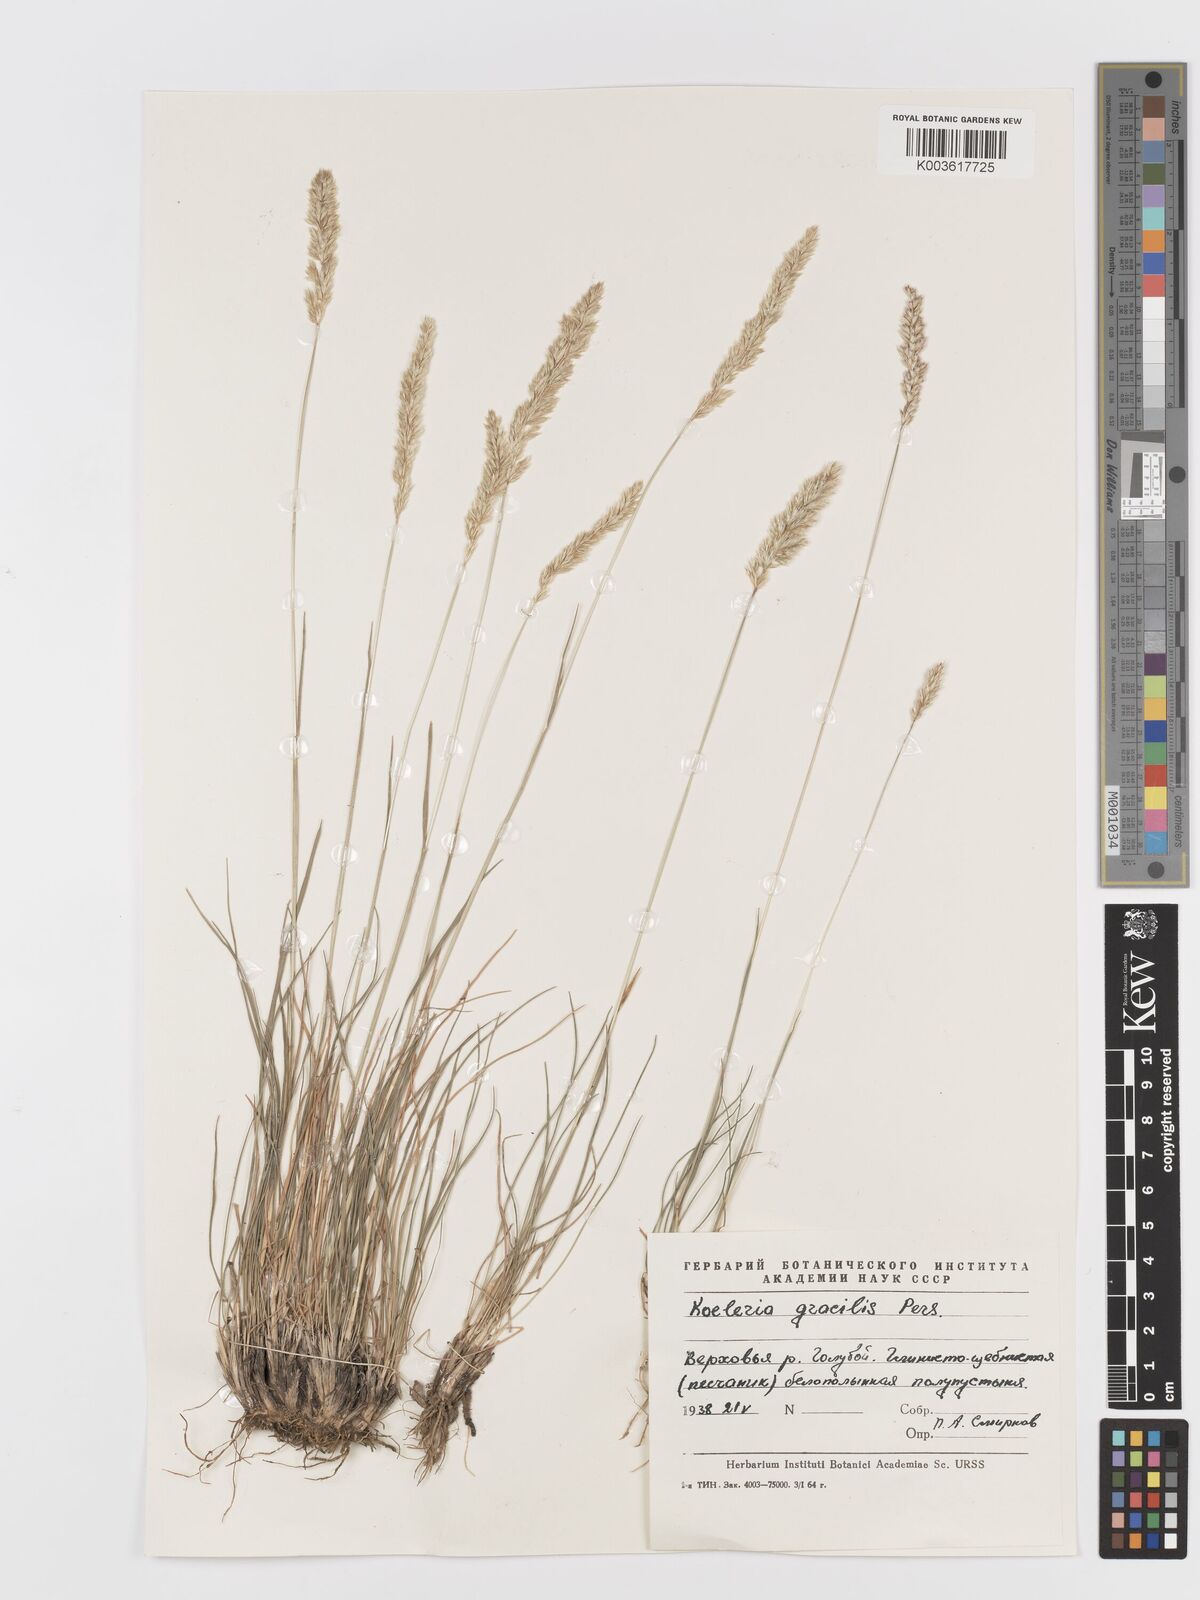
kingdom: Plantae
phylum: Tracheophyta
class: Liliopsida
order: Poales
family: Poaceae
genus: Koeleria
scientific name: Koeleria splendens
